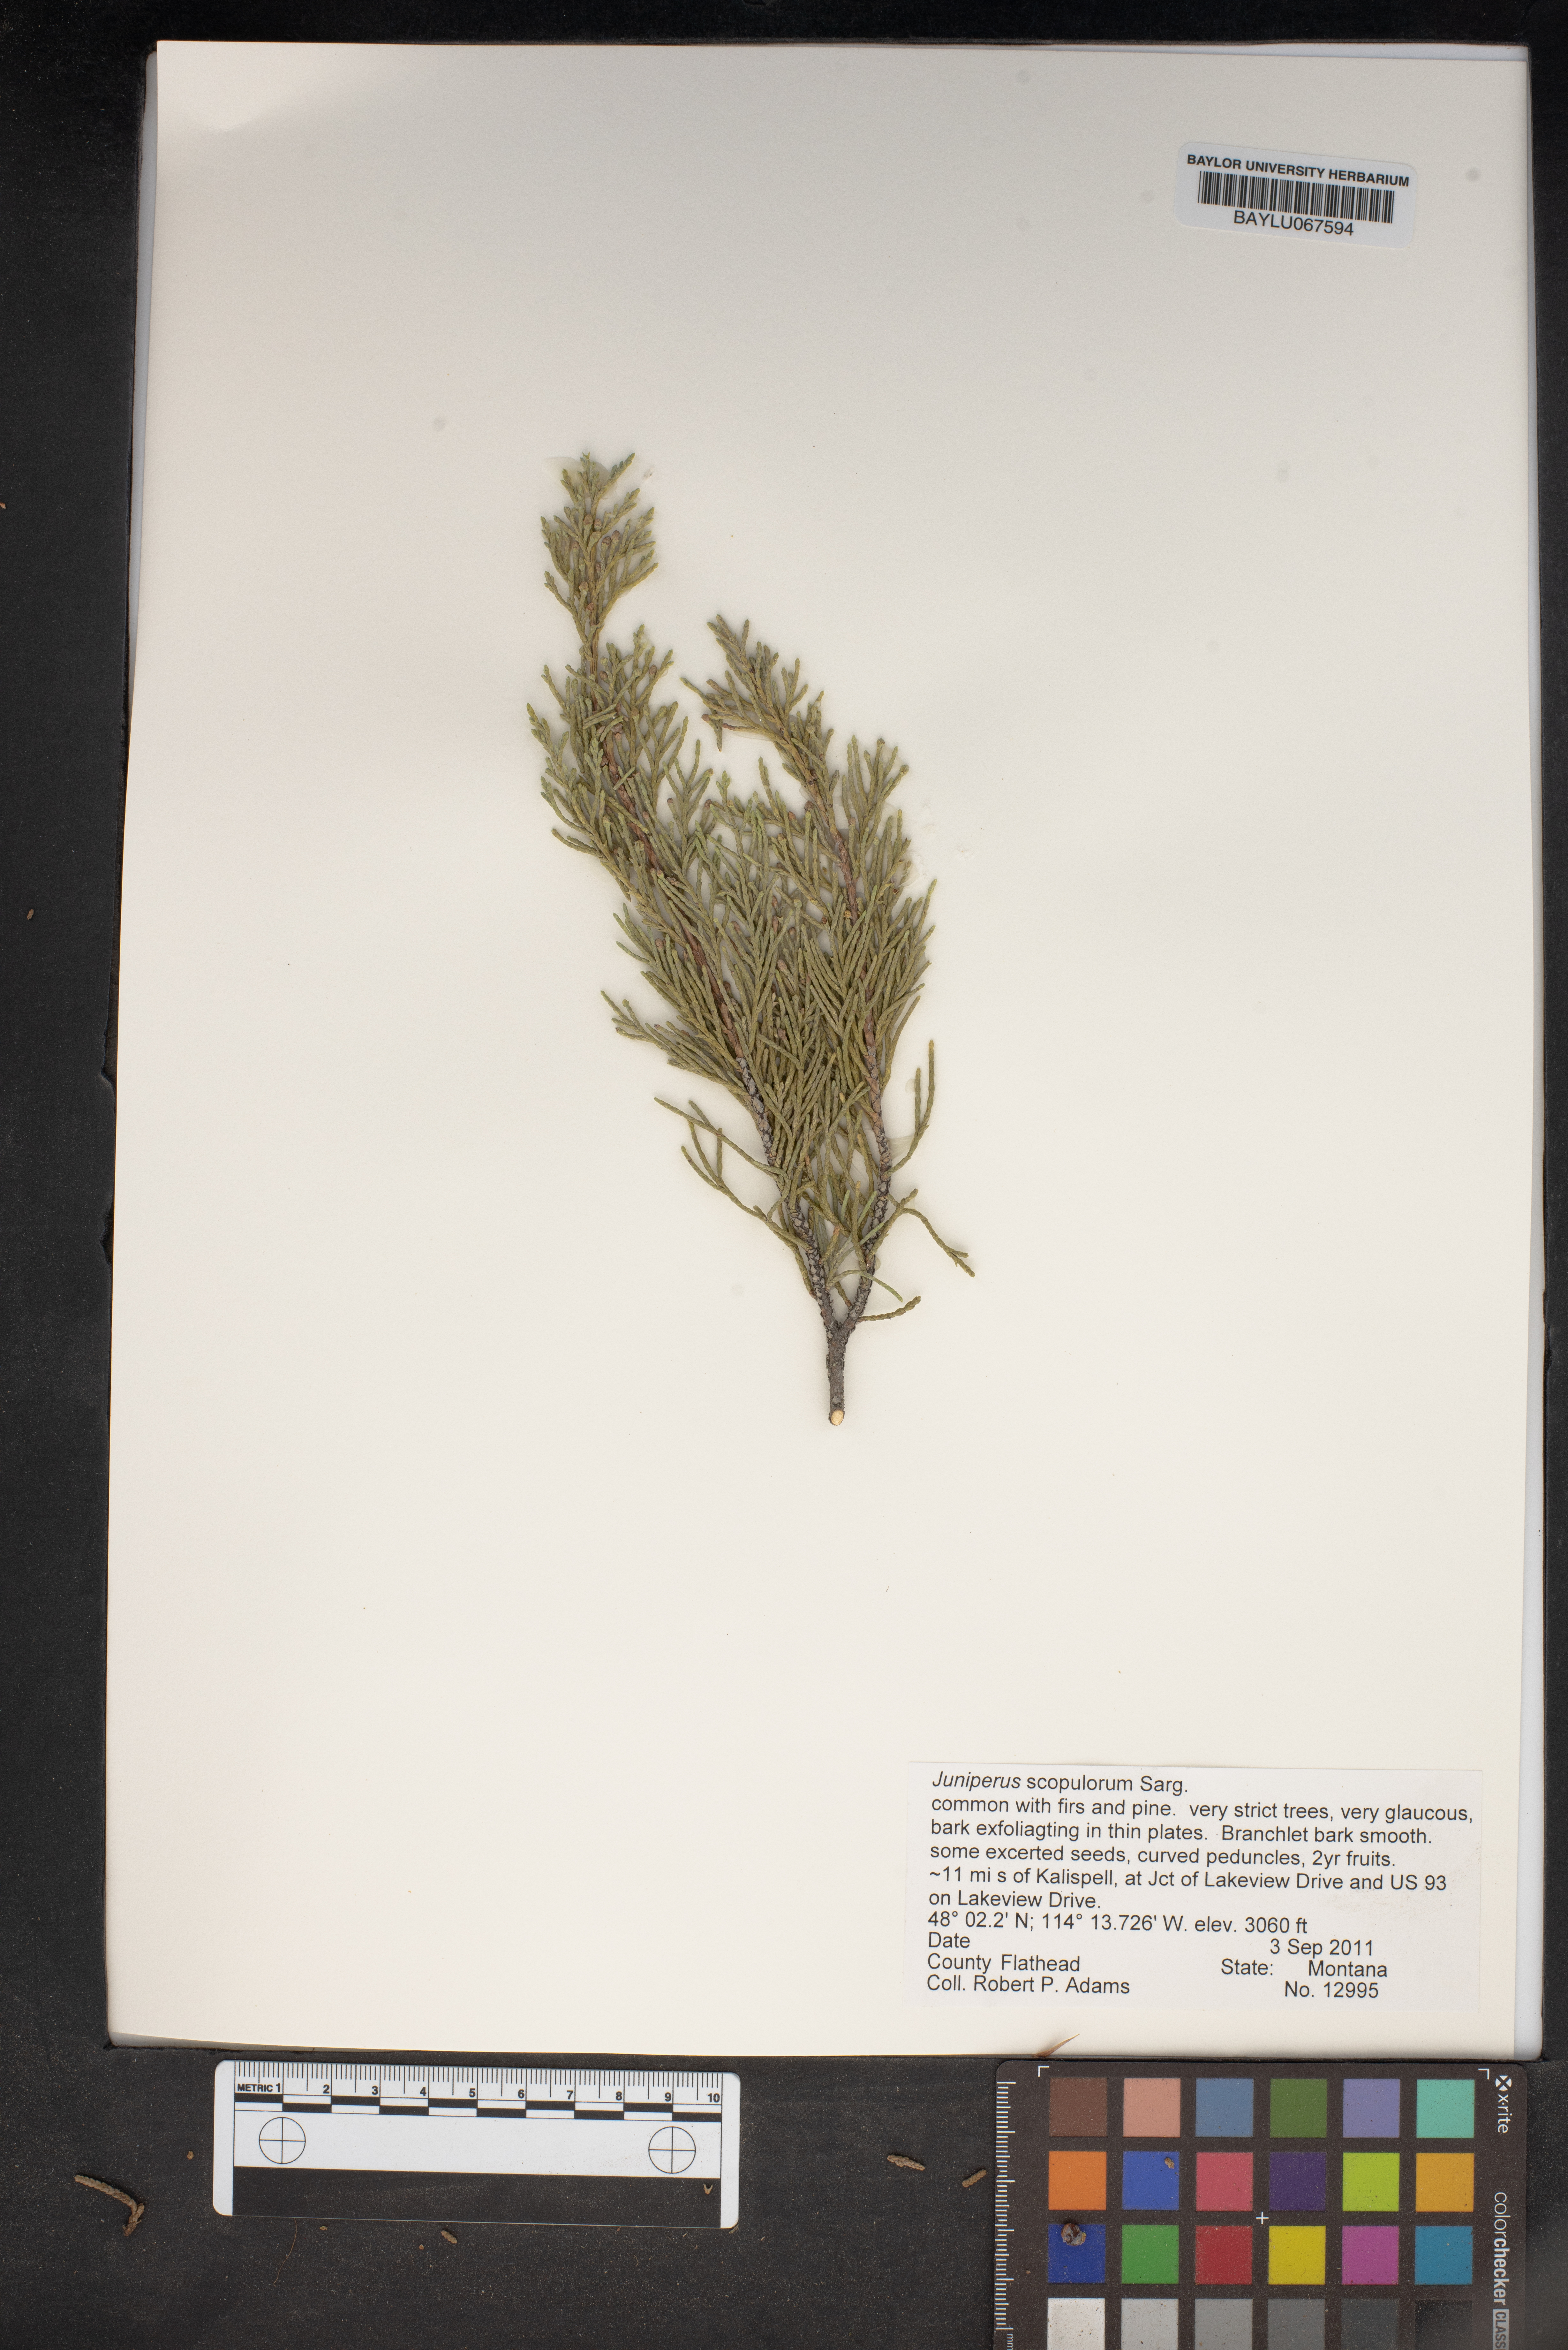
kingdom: Plantae
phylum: Tracheophyta
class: Pinopsida
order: Pinales
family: Cupressaceae
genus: Juniperus
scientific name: Juniperus scopulorum
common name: Rocky mountain juniper
